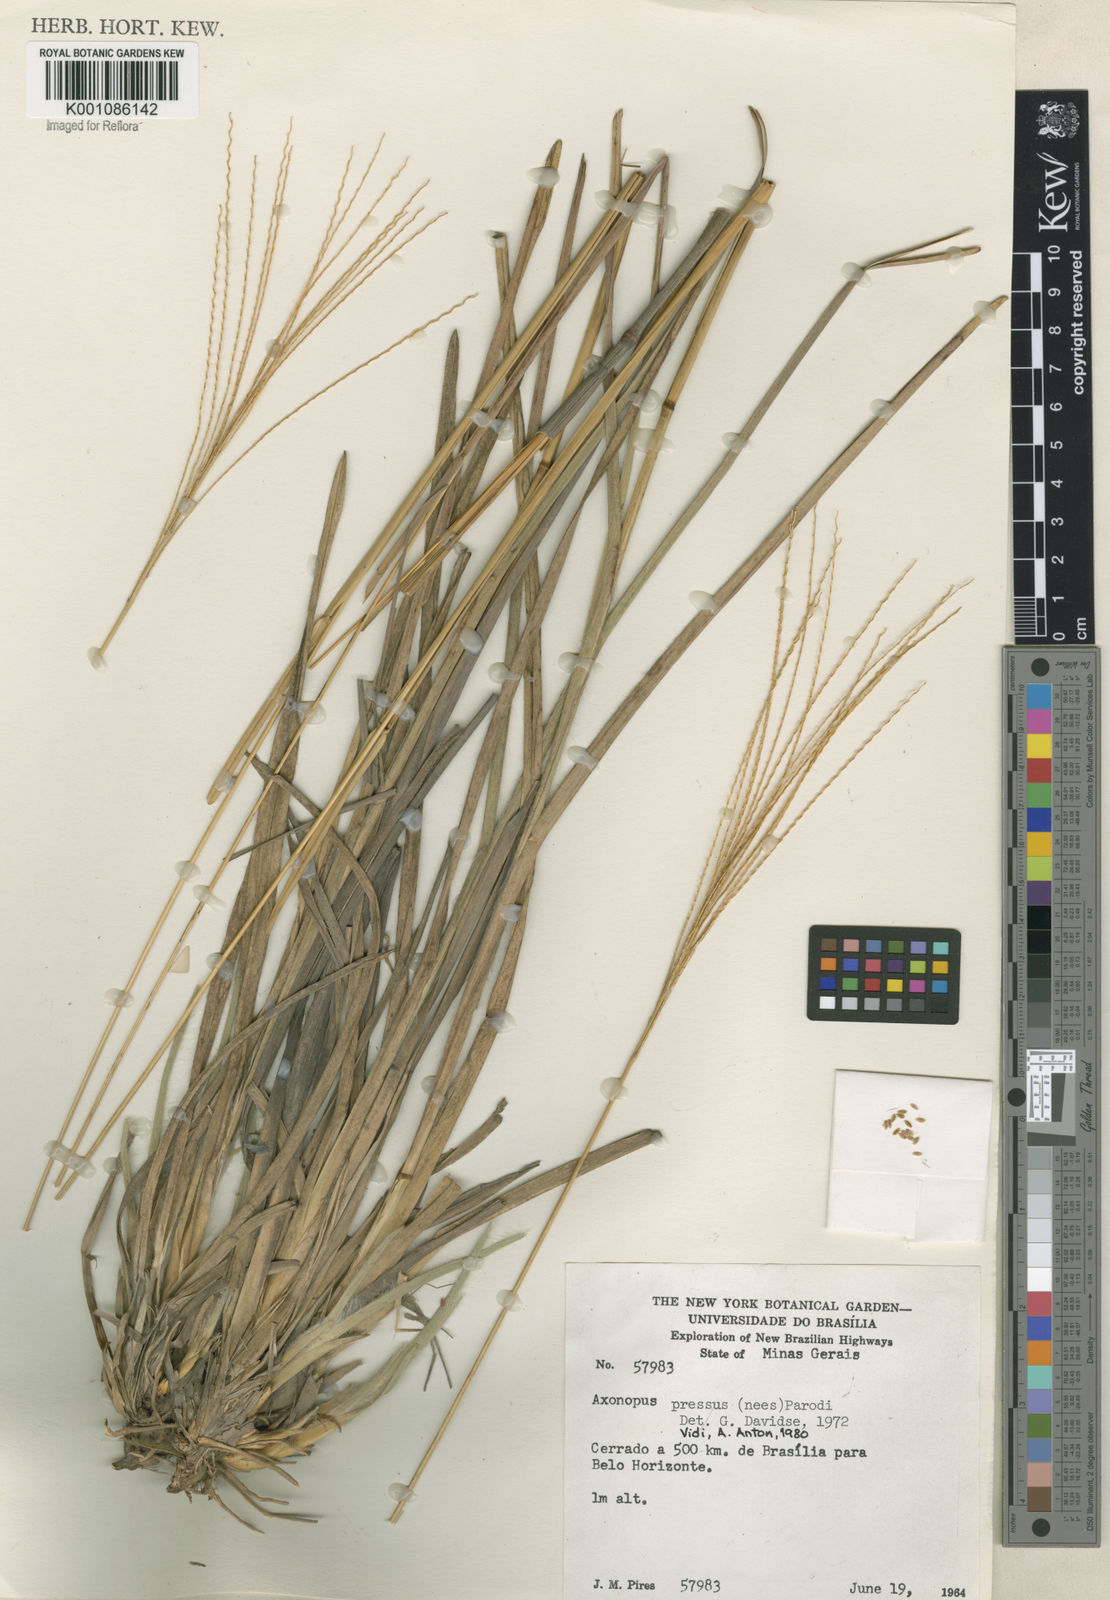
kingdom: Plantae
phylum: Tracheophyta
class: Liliopsida
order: Poales
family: Poaceae
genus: Axonopus
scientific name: Axonopus pressus
